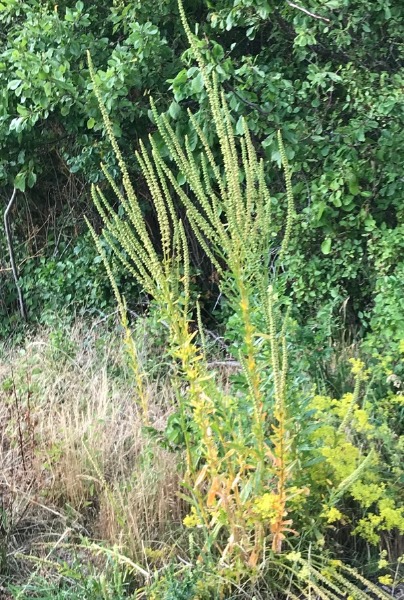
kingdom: Plantae
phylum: Tracheophyta
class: Magnoliopsida
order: Brassicales
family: Resedaceae
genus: Reseda
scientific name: Reseda luteola
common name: Farve-reseda
